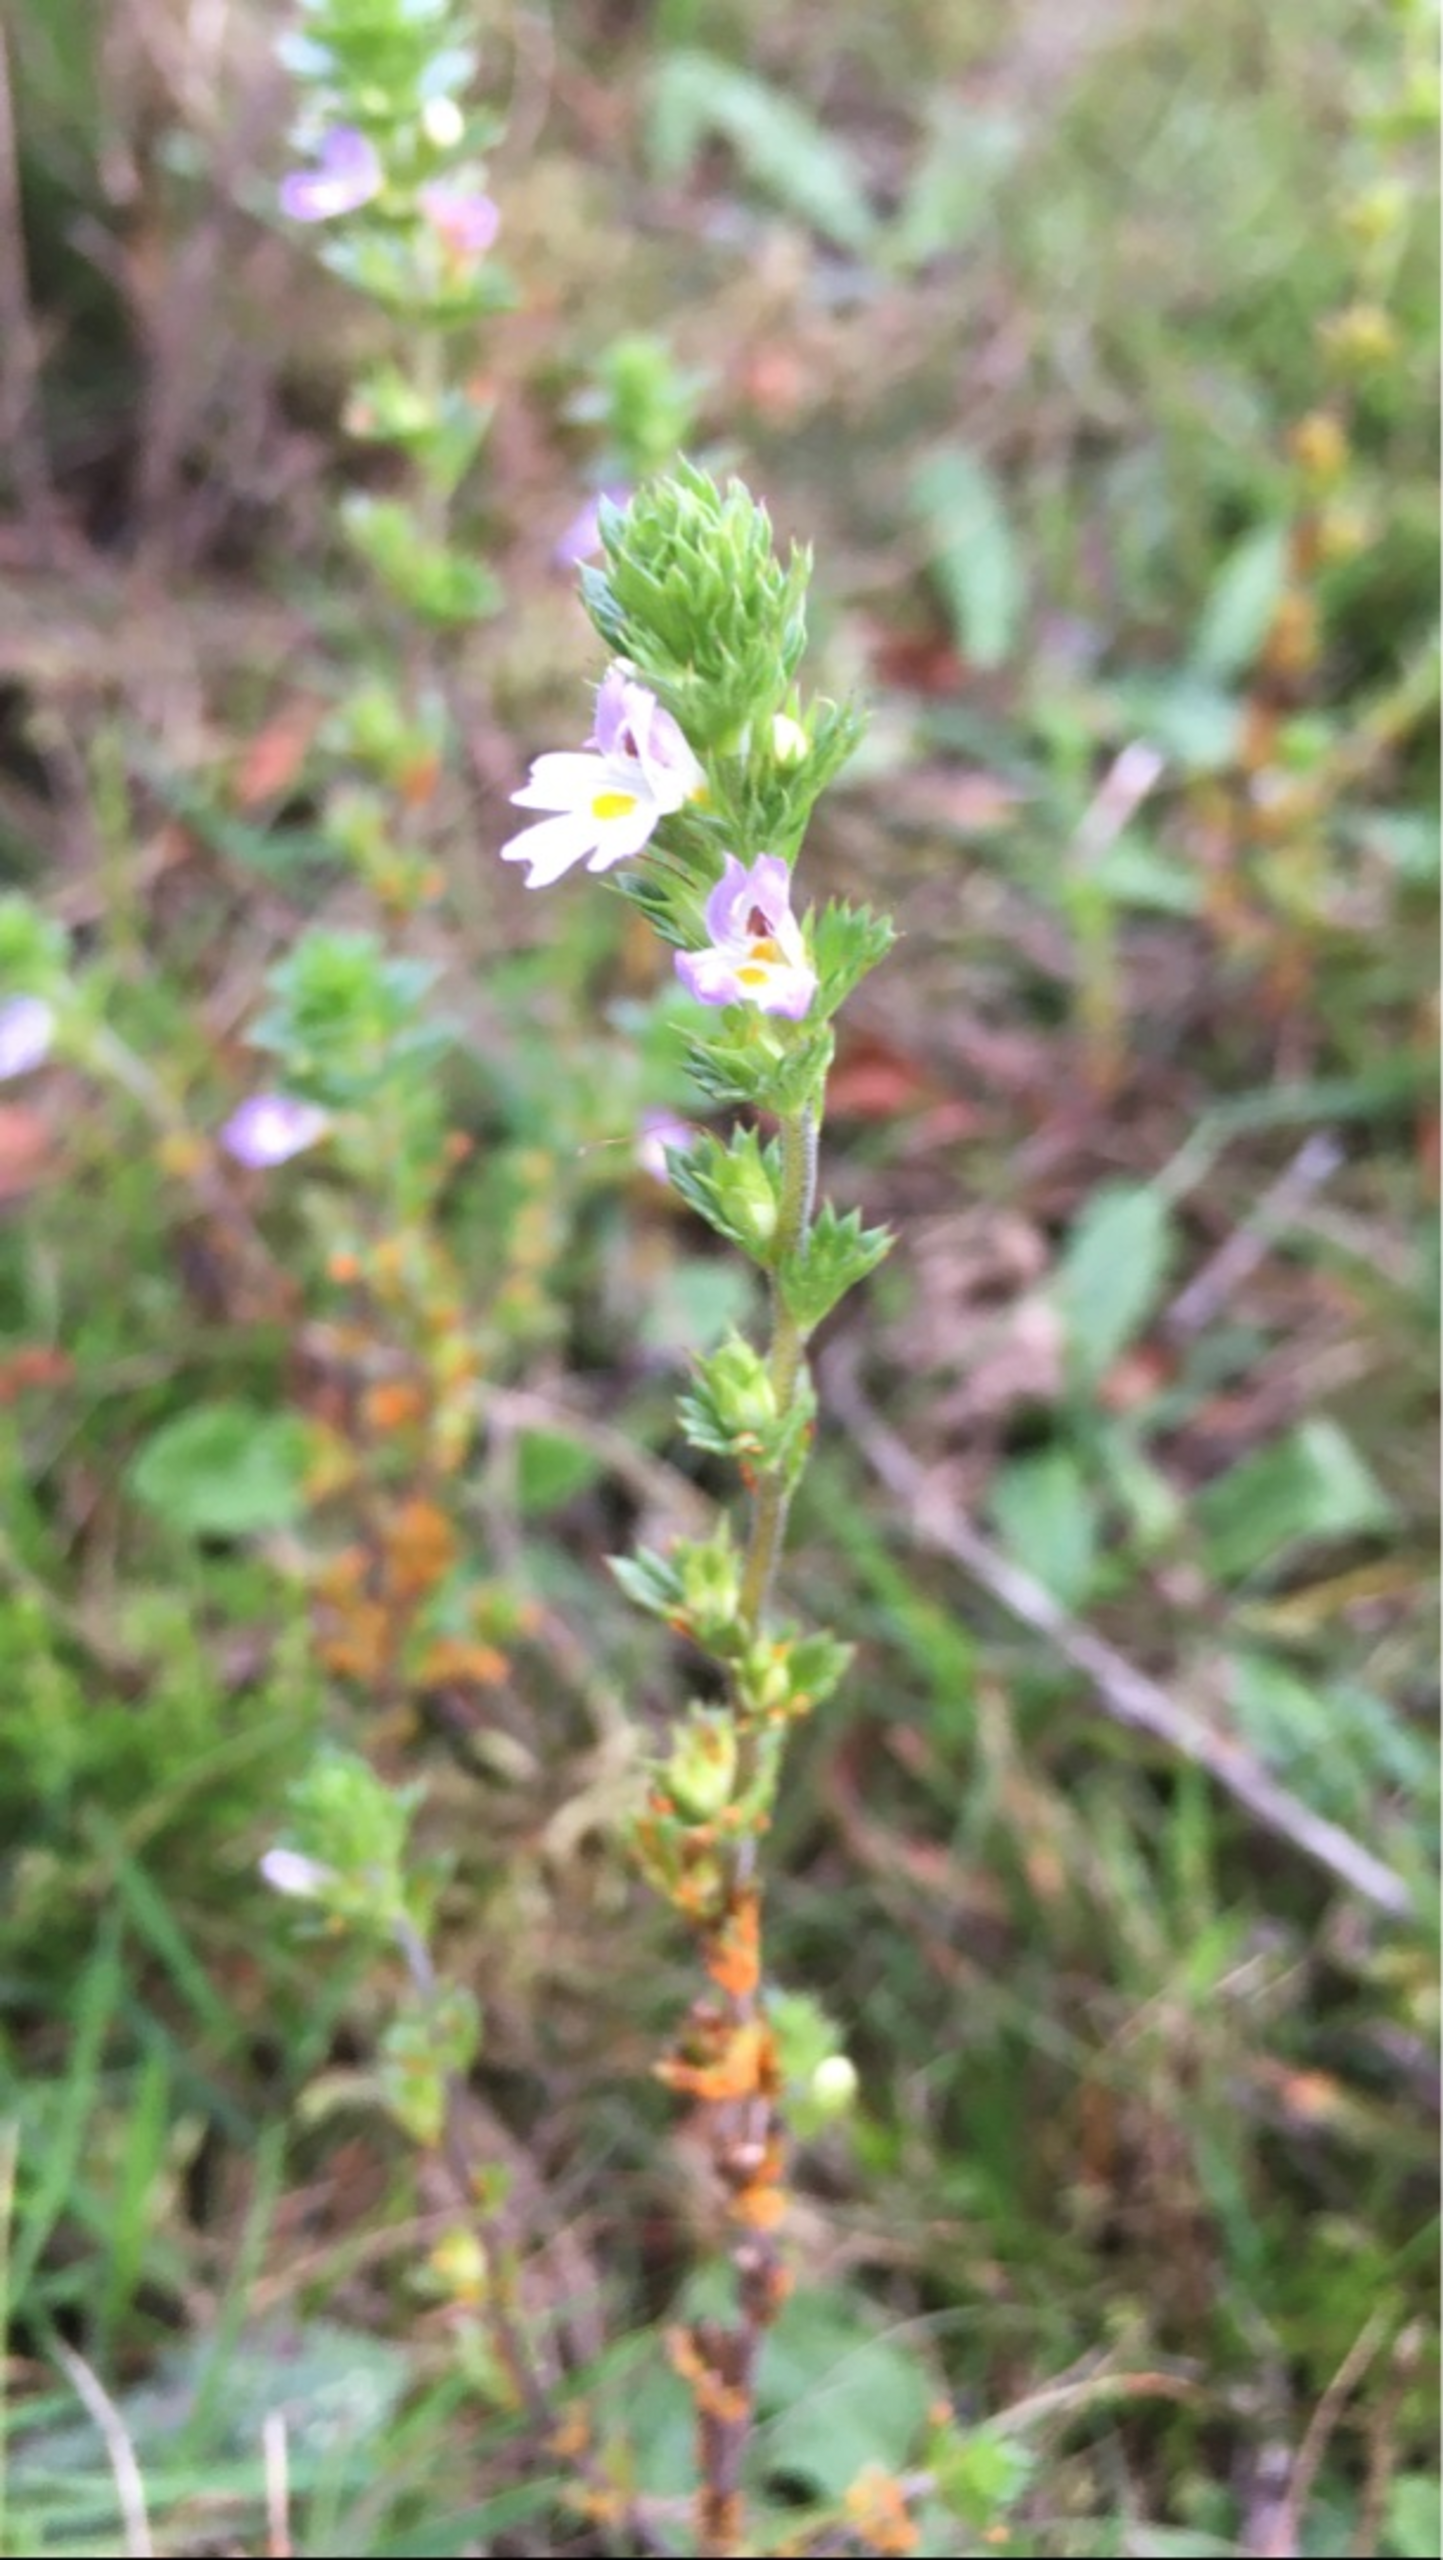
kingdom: Plantae
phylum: Tracheophyta
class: Magnoliopsida
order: Lamiales
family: Orobanchaceae
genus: Euphrasia
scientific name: Euphrasia
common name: Øjentrøstslægten
